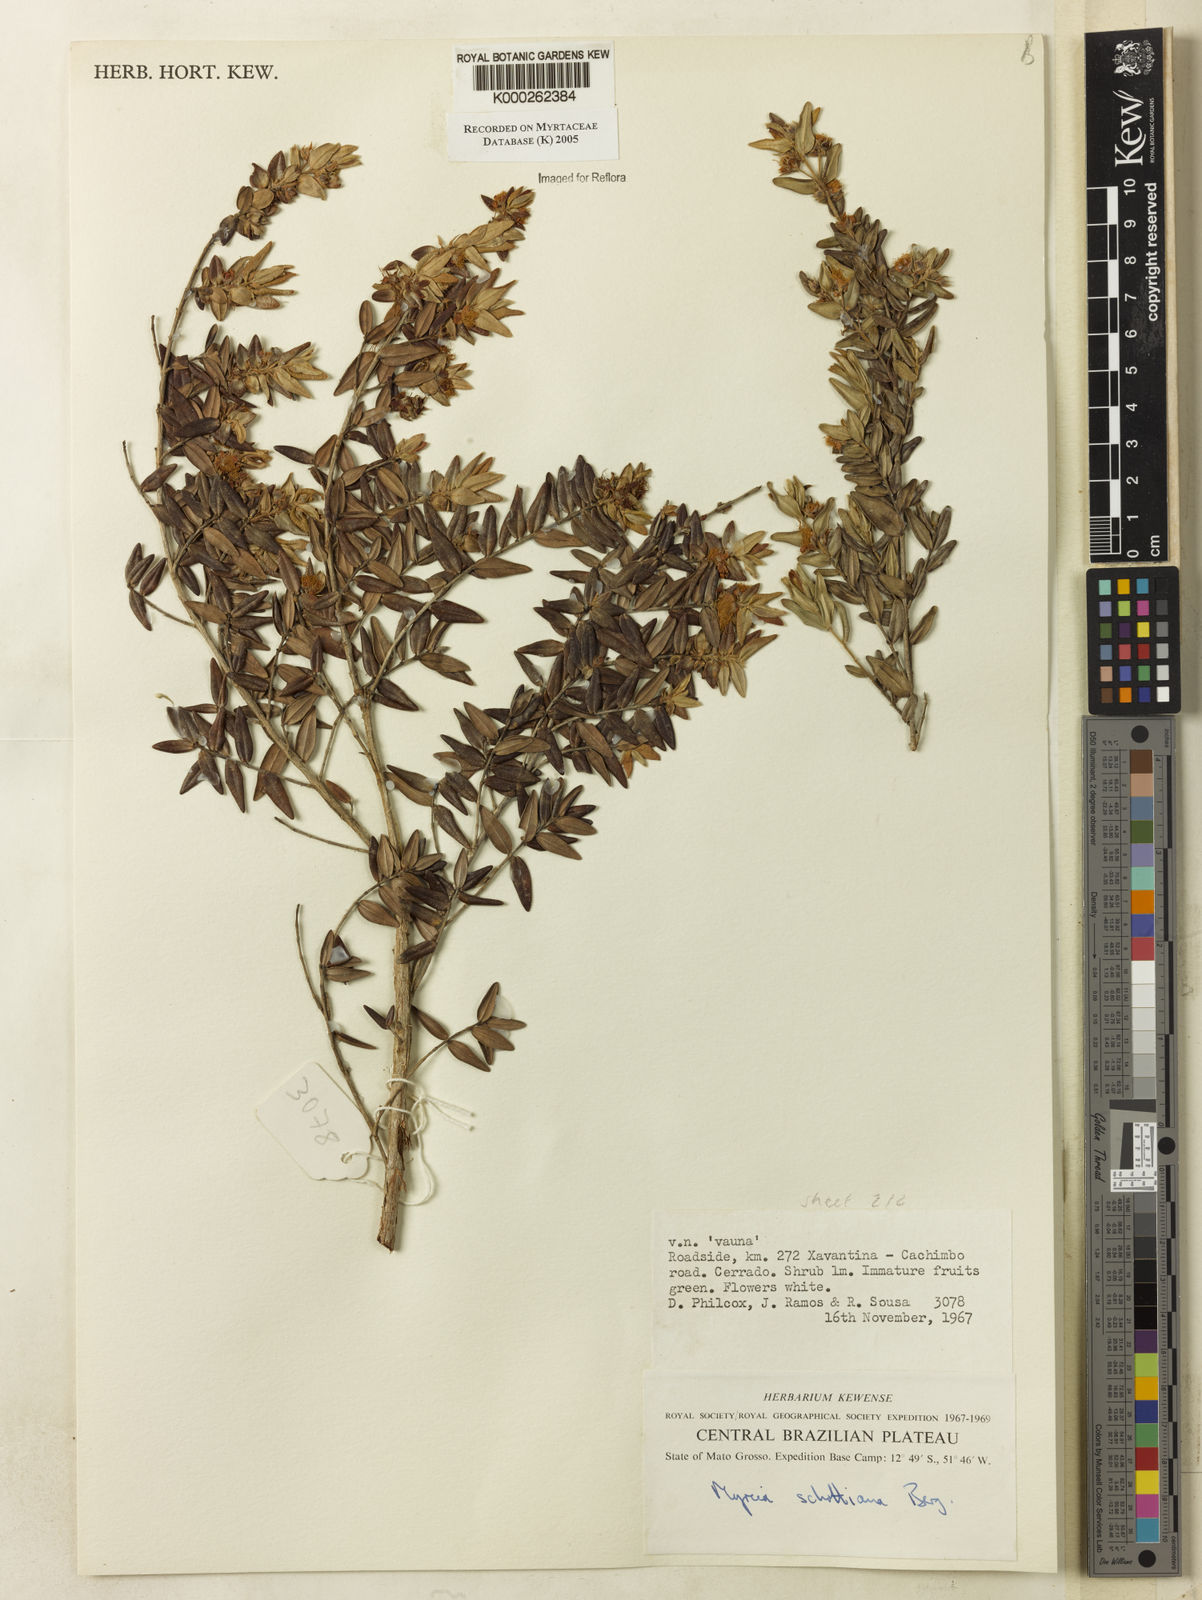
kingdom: Plantae
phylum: Tracheophyta
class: Magnoliopsida
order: Myrtales
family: Myrtaceae
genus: Myrcia
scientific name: Myrcia schottiana
